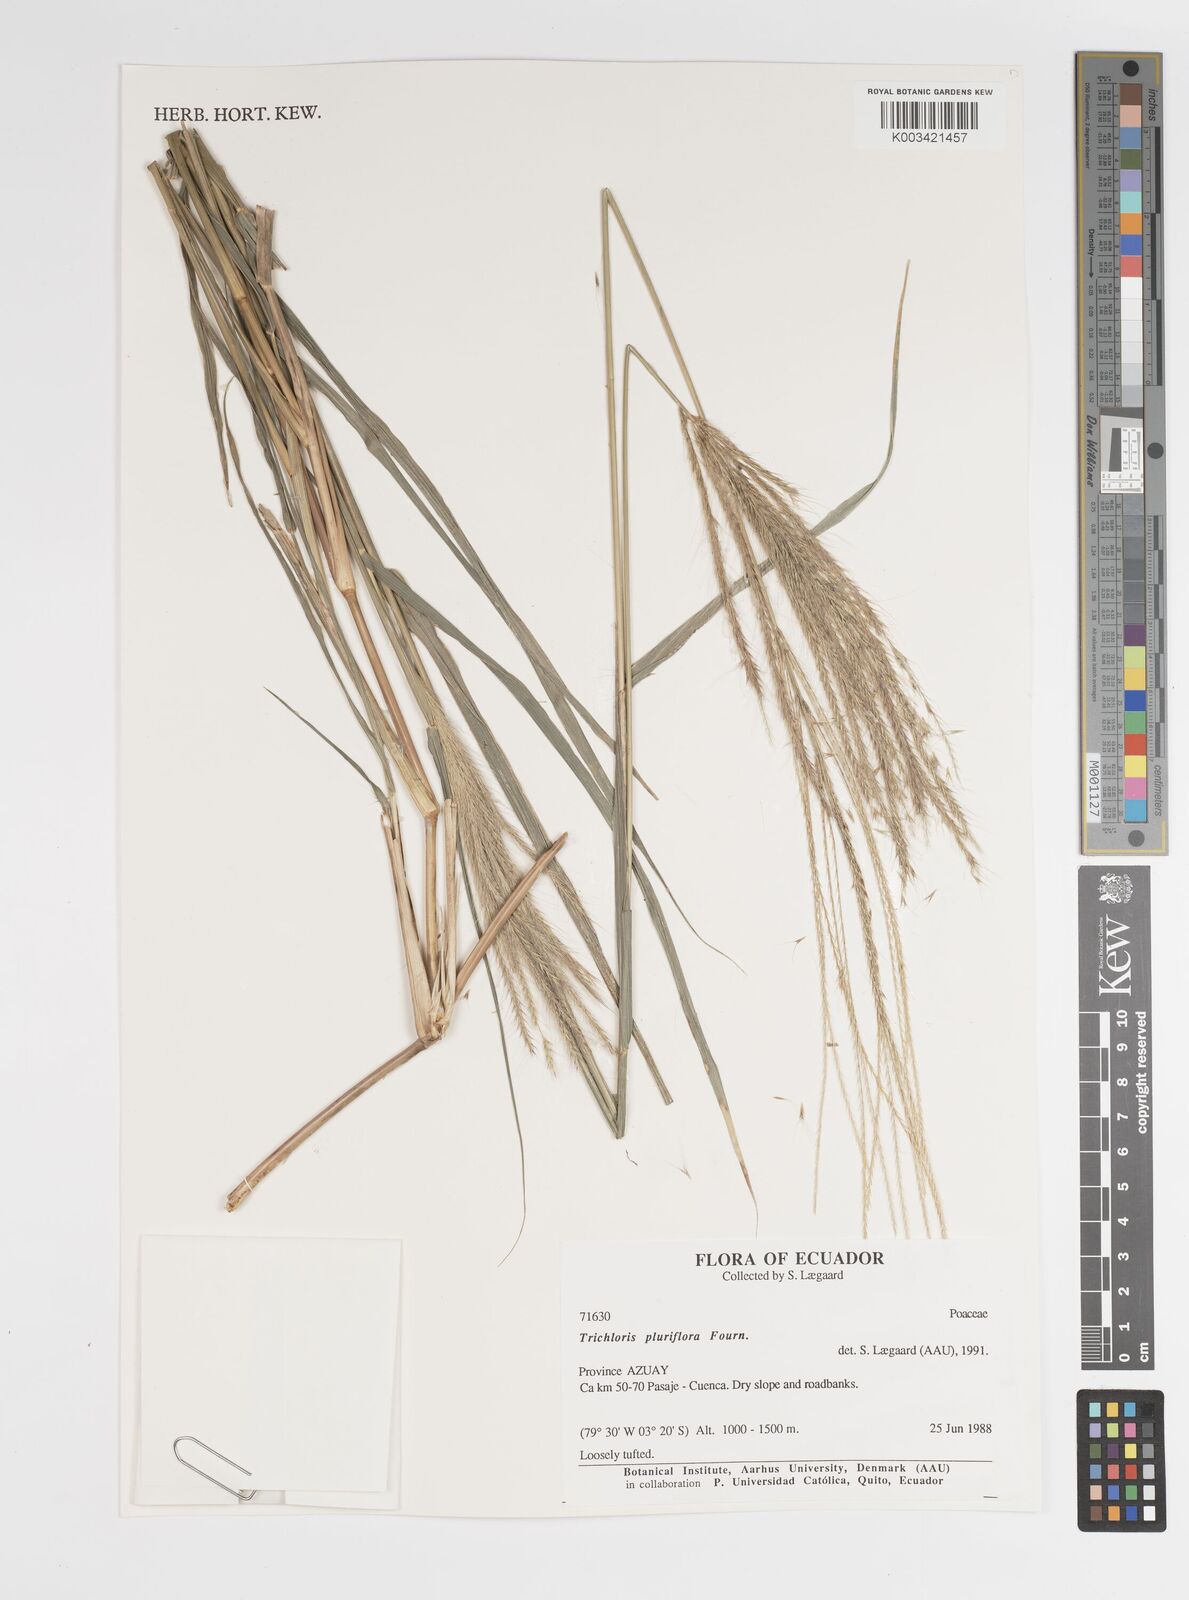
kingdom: Plantae
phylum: Tracheophyta
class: Liliopsida
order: Poales
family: Poaceae
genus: Leptochloa
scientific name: Leptochloa pluriflora
